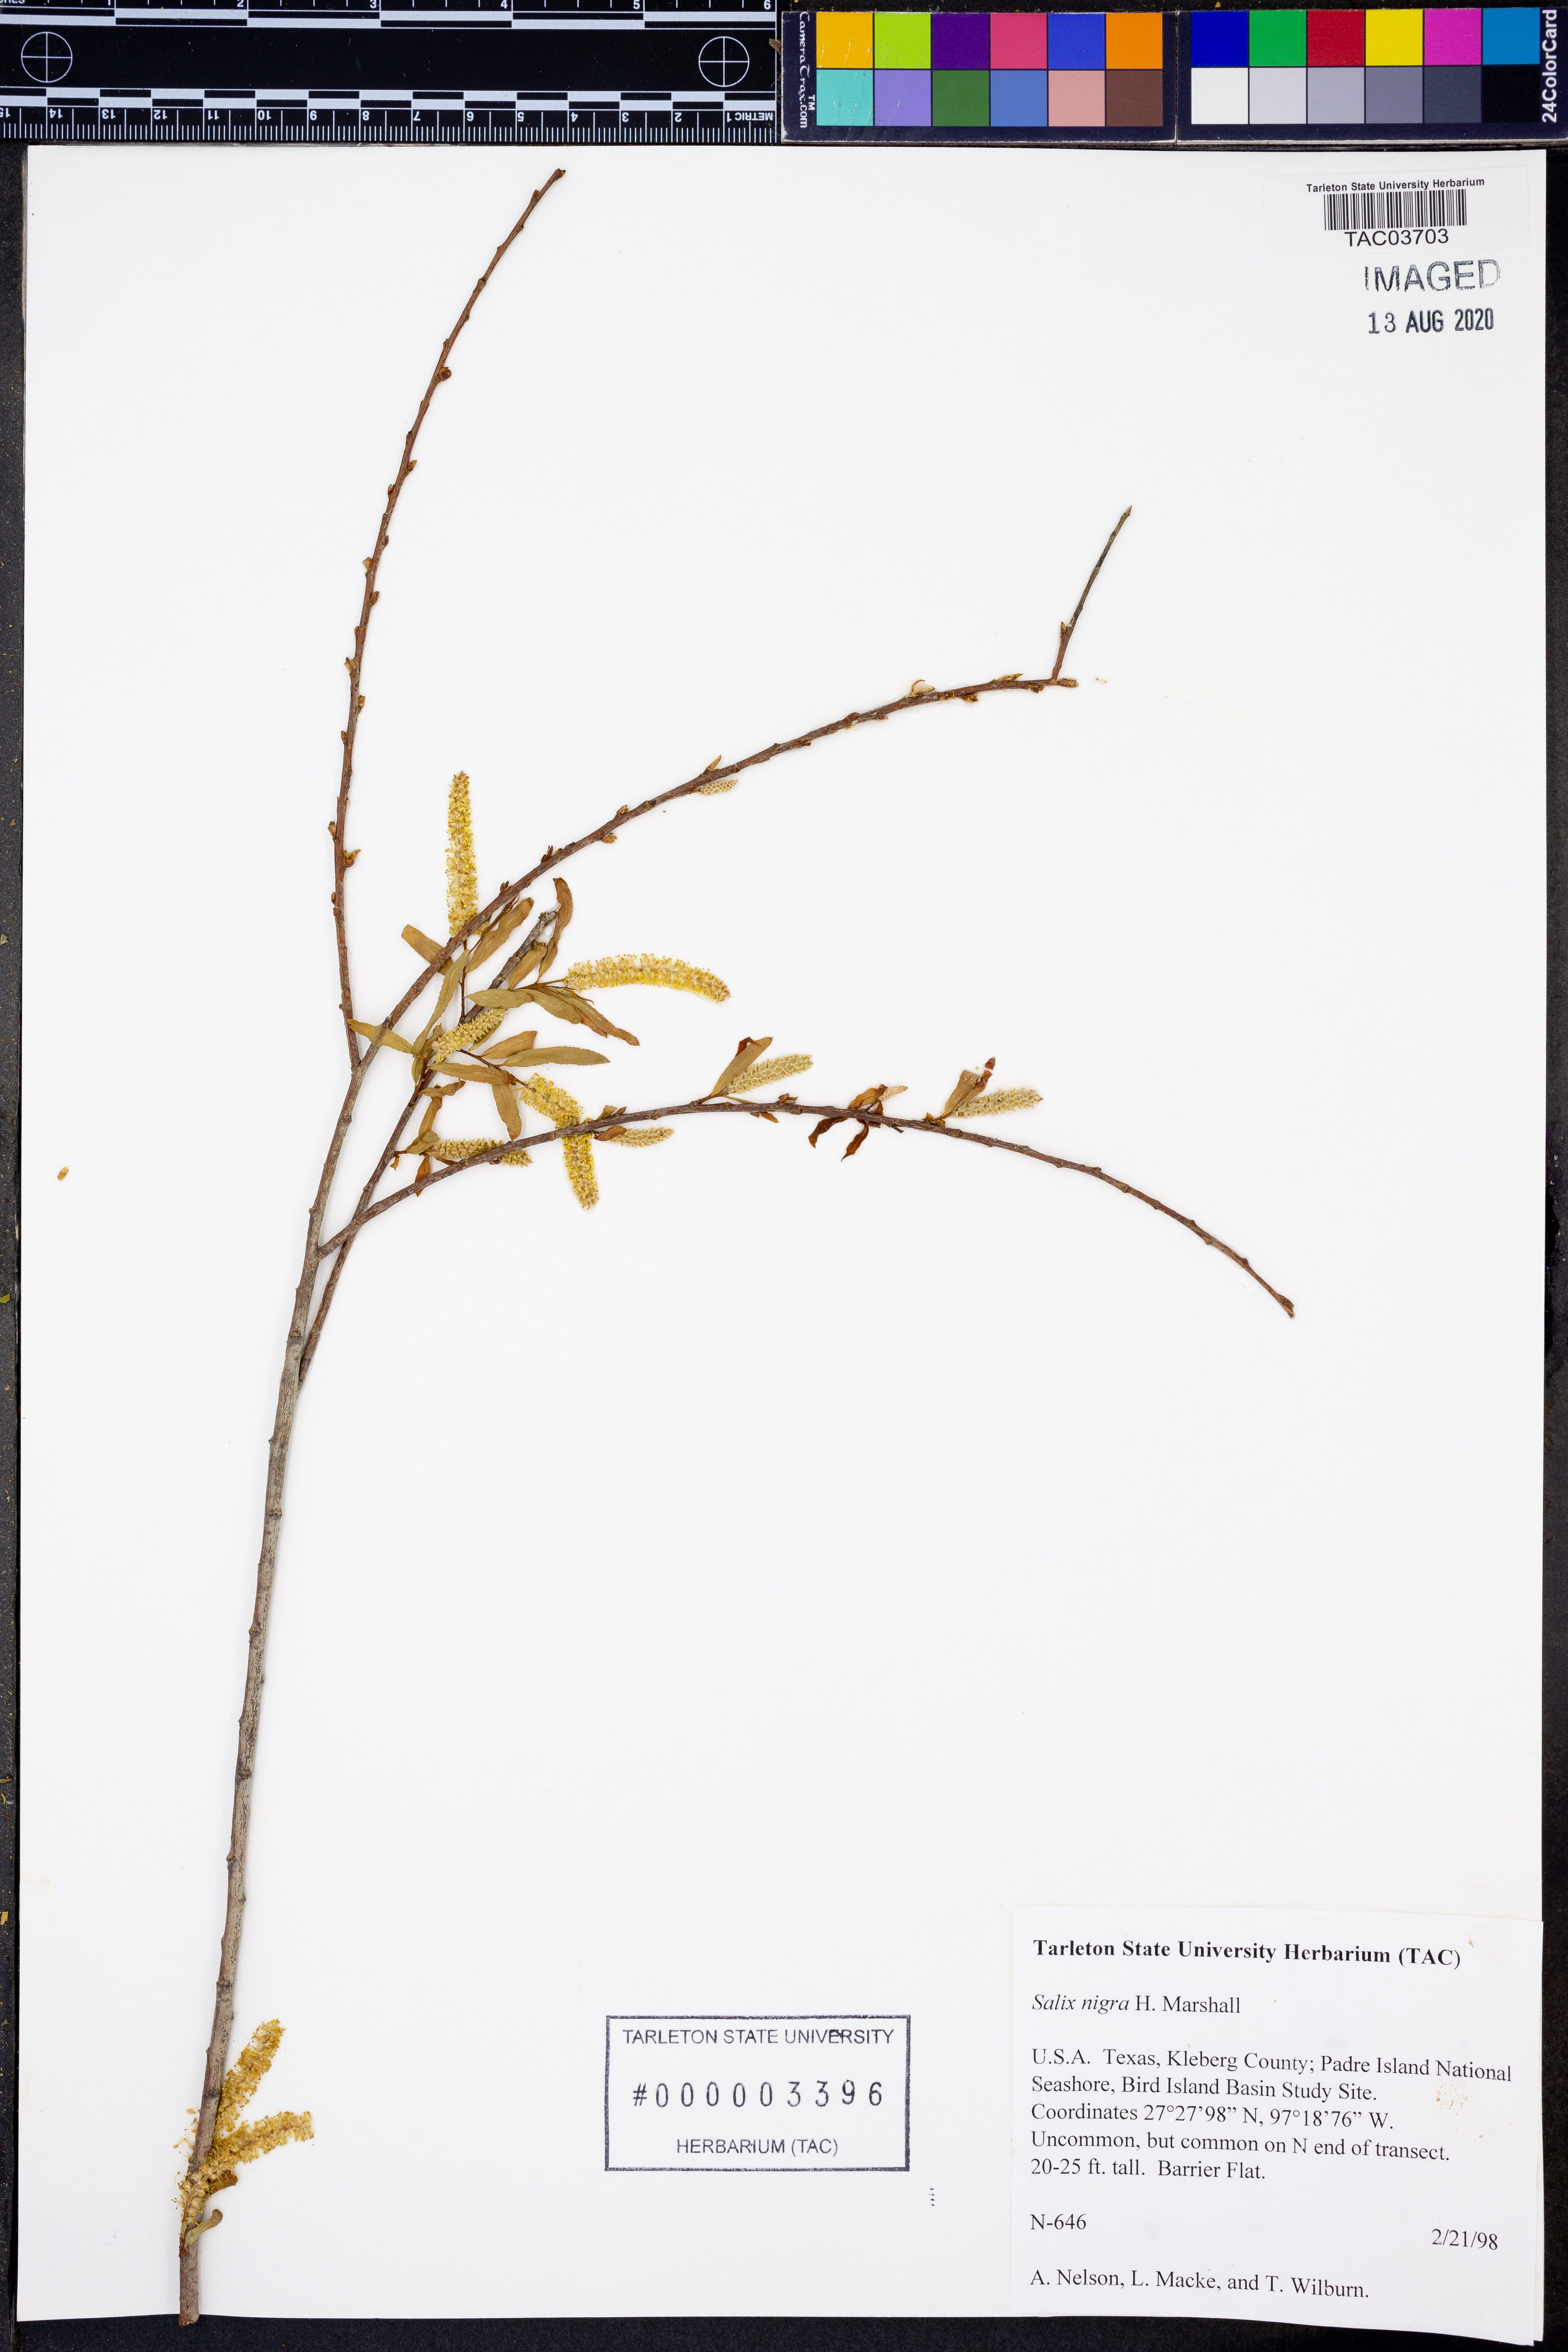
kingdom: Plantae
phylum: Tracheophyta
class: Magnoliopsida
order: Malpighiales
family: Salicaceae
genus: Salix
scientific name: Salix nigra
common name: Black willow
